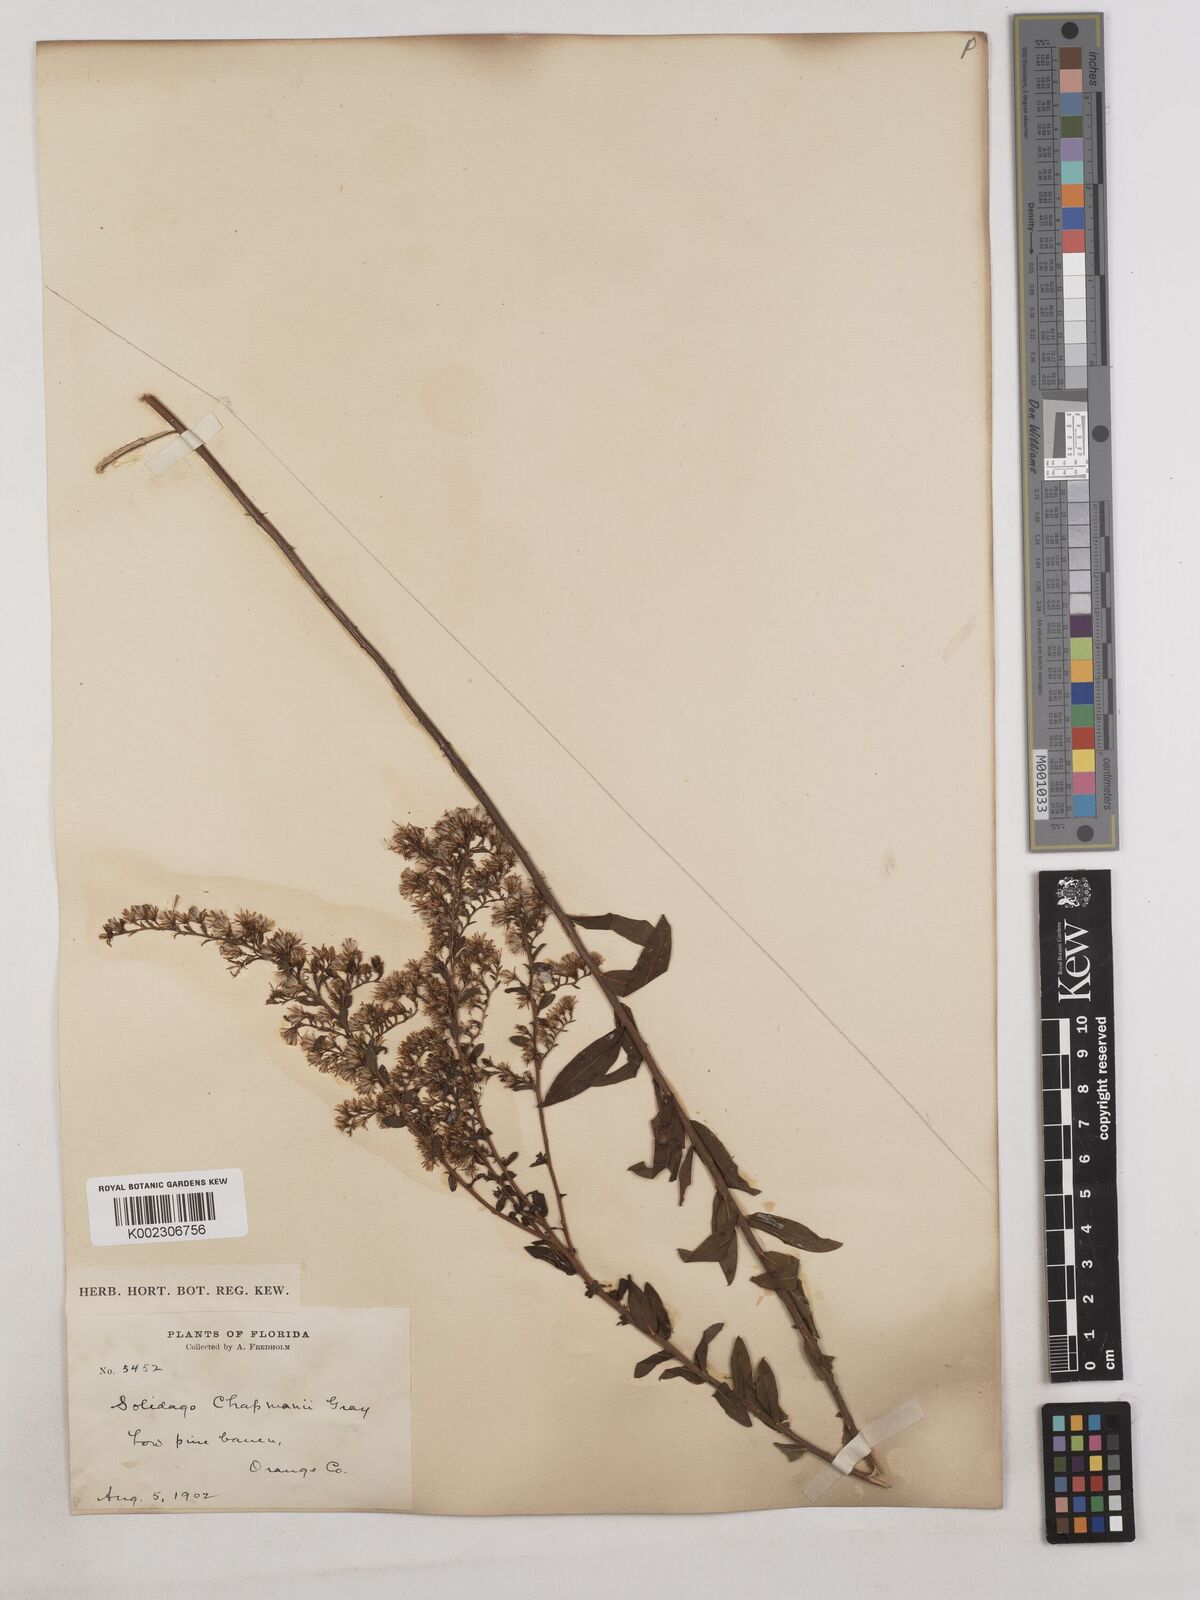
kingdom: Plantae
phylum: Tracheophyta
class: Magnoliopsida
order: Asterales
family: Asteraceae
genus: Solidago
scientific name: Solidago chapmanii
